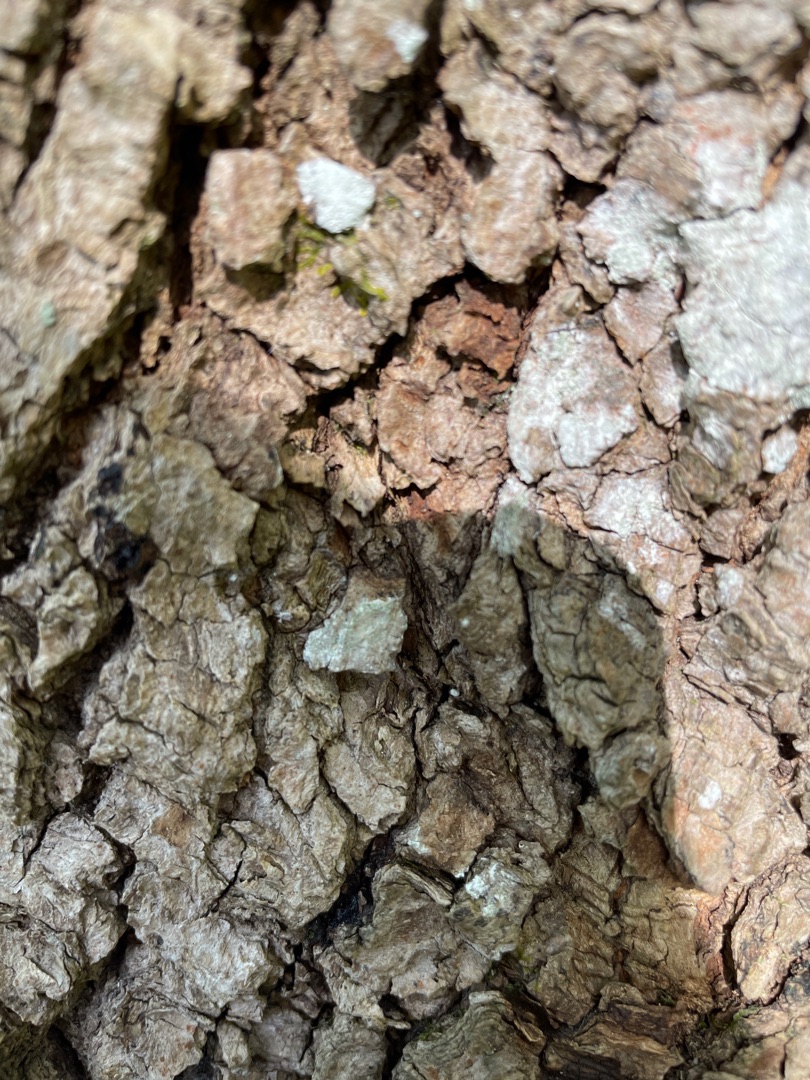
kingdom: Fungi
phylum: Ascomycota
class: Lecanoromycetes
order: Ostropales
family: Phlyctidaceae
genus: Phlyctis
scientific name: Phlyctis argena
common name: Almindelig sølvlav
